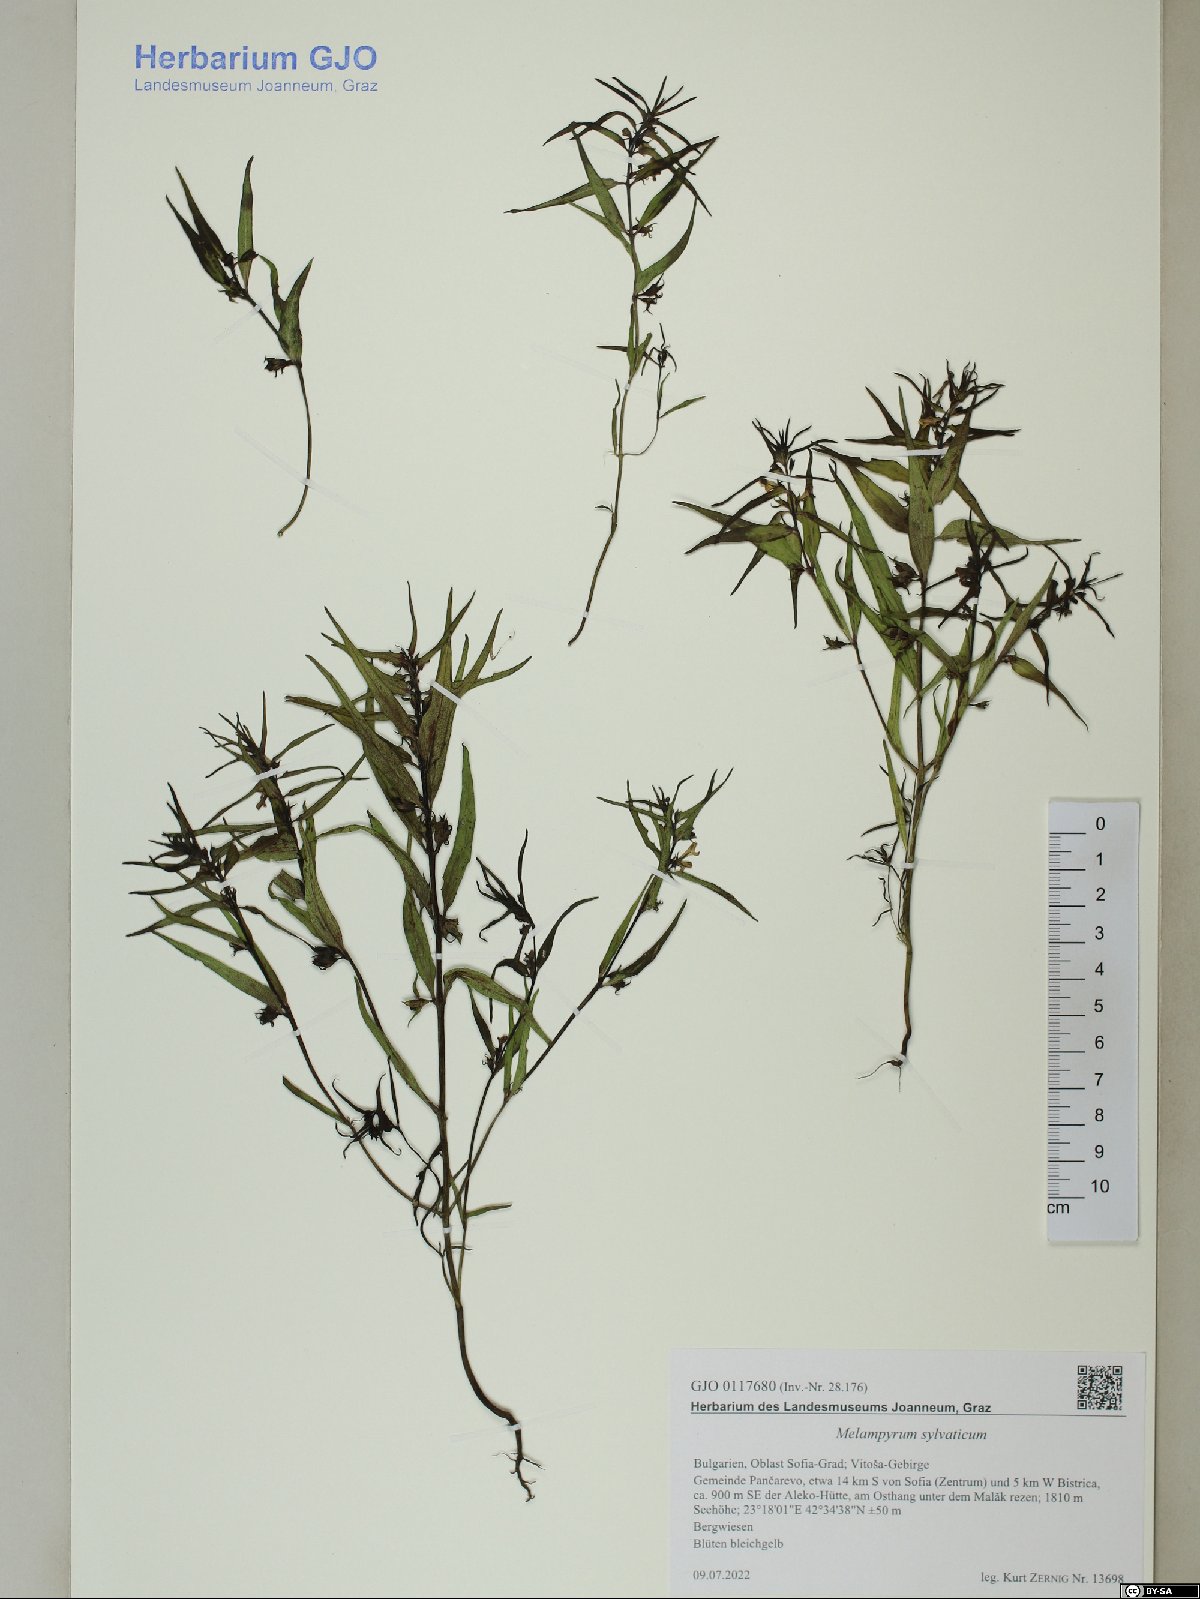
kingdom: Plantae
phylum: Tracheophyta
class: Magnoliopsida
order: Lamiales
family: Orobanchaceae
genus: Melampyrum
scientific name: Melampyrum sylvaticum
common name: Small cow-wheat
